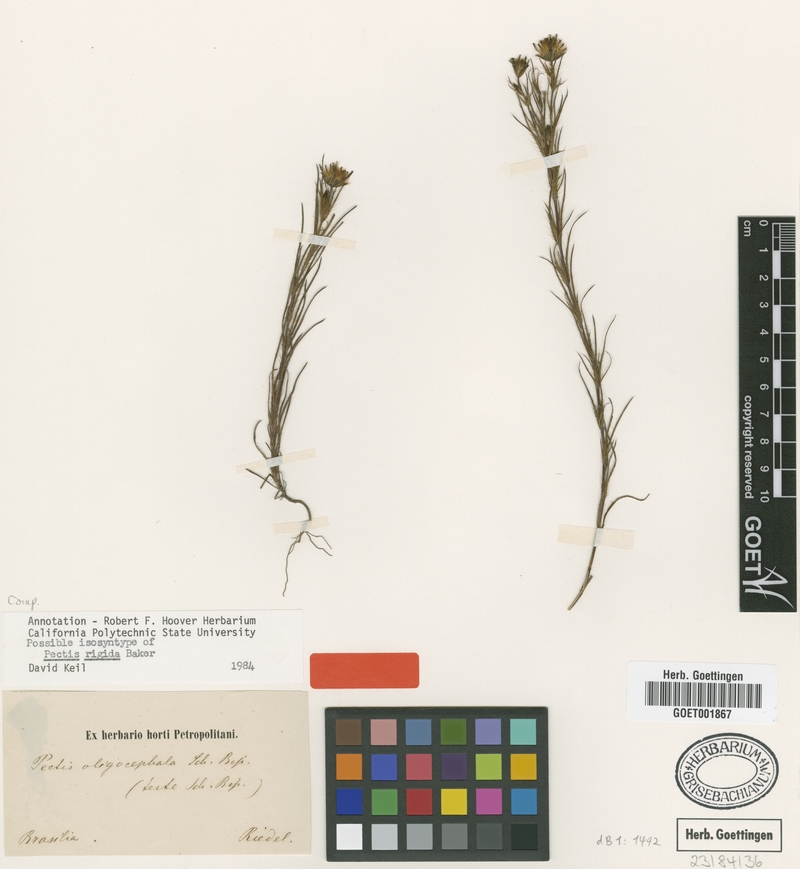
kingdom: Plantae
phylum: Tracheophyta
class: Magnoliopsida
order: Asterales
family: Asteraceae
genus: Pectis
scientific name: Pectis oligocephala
